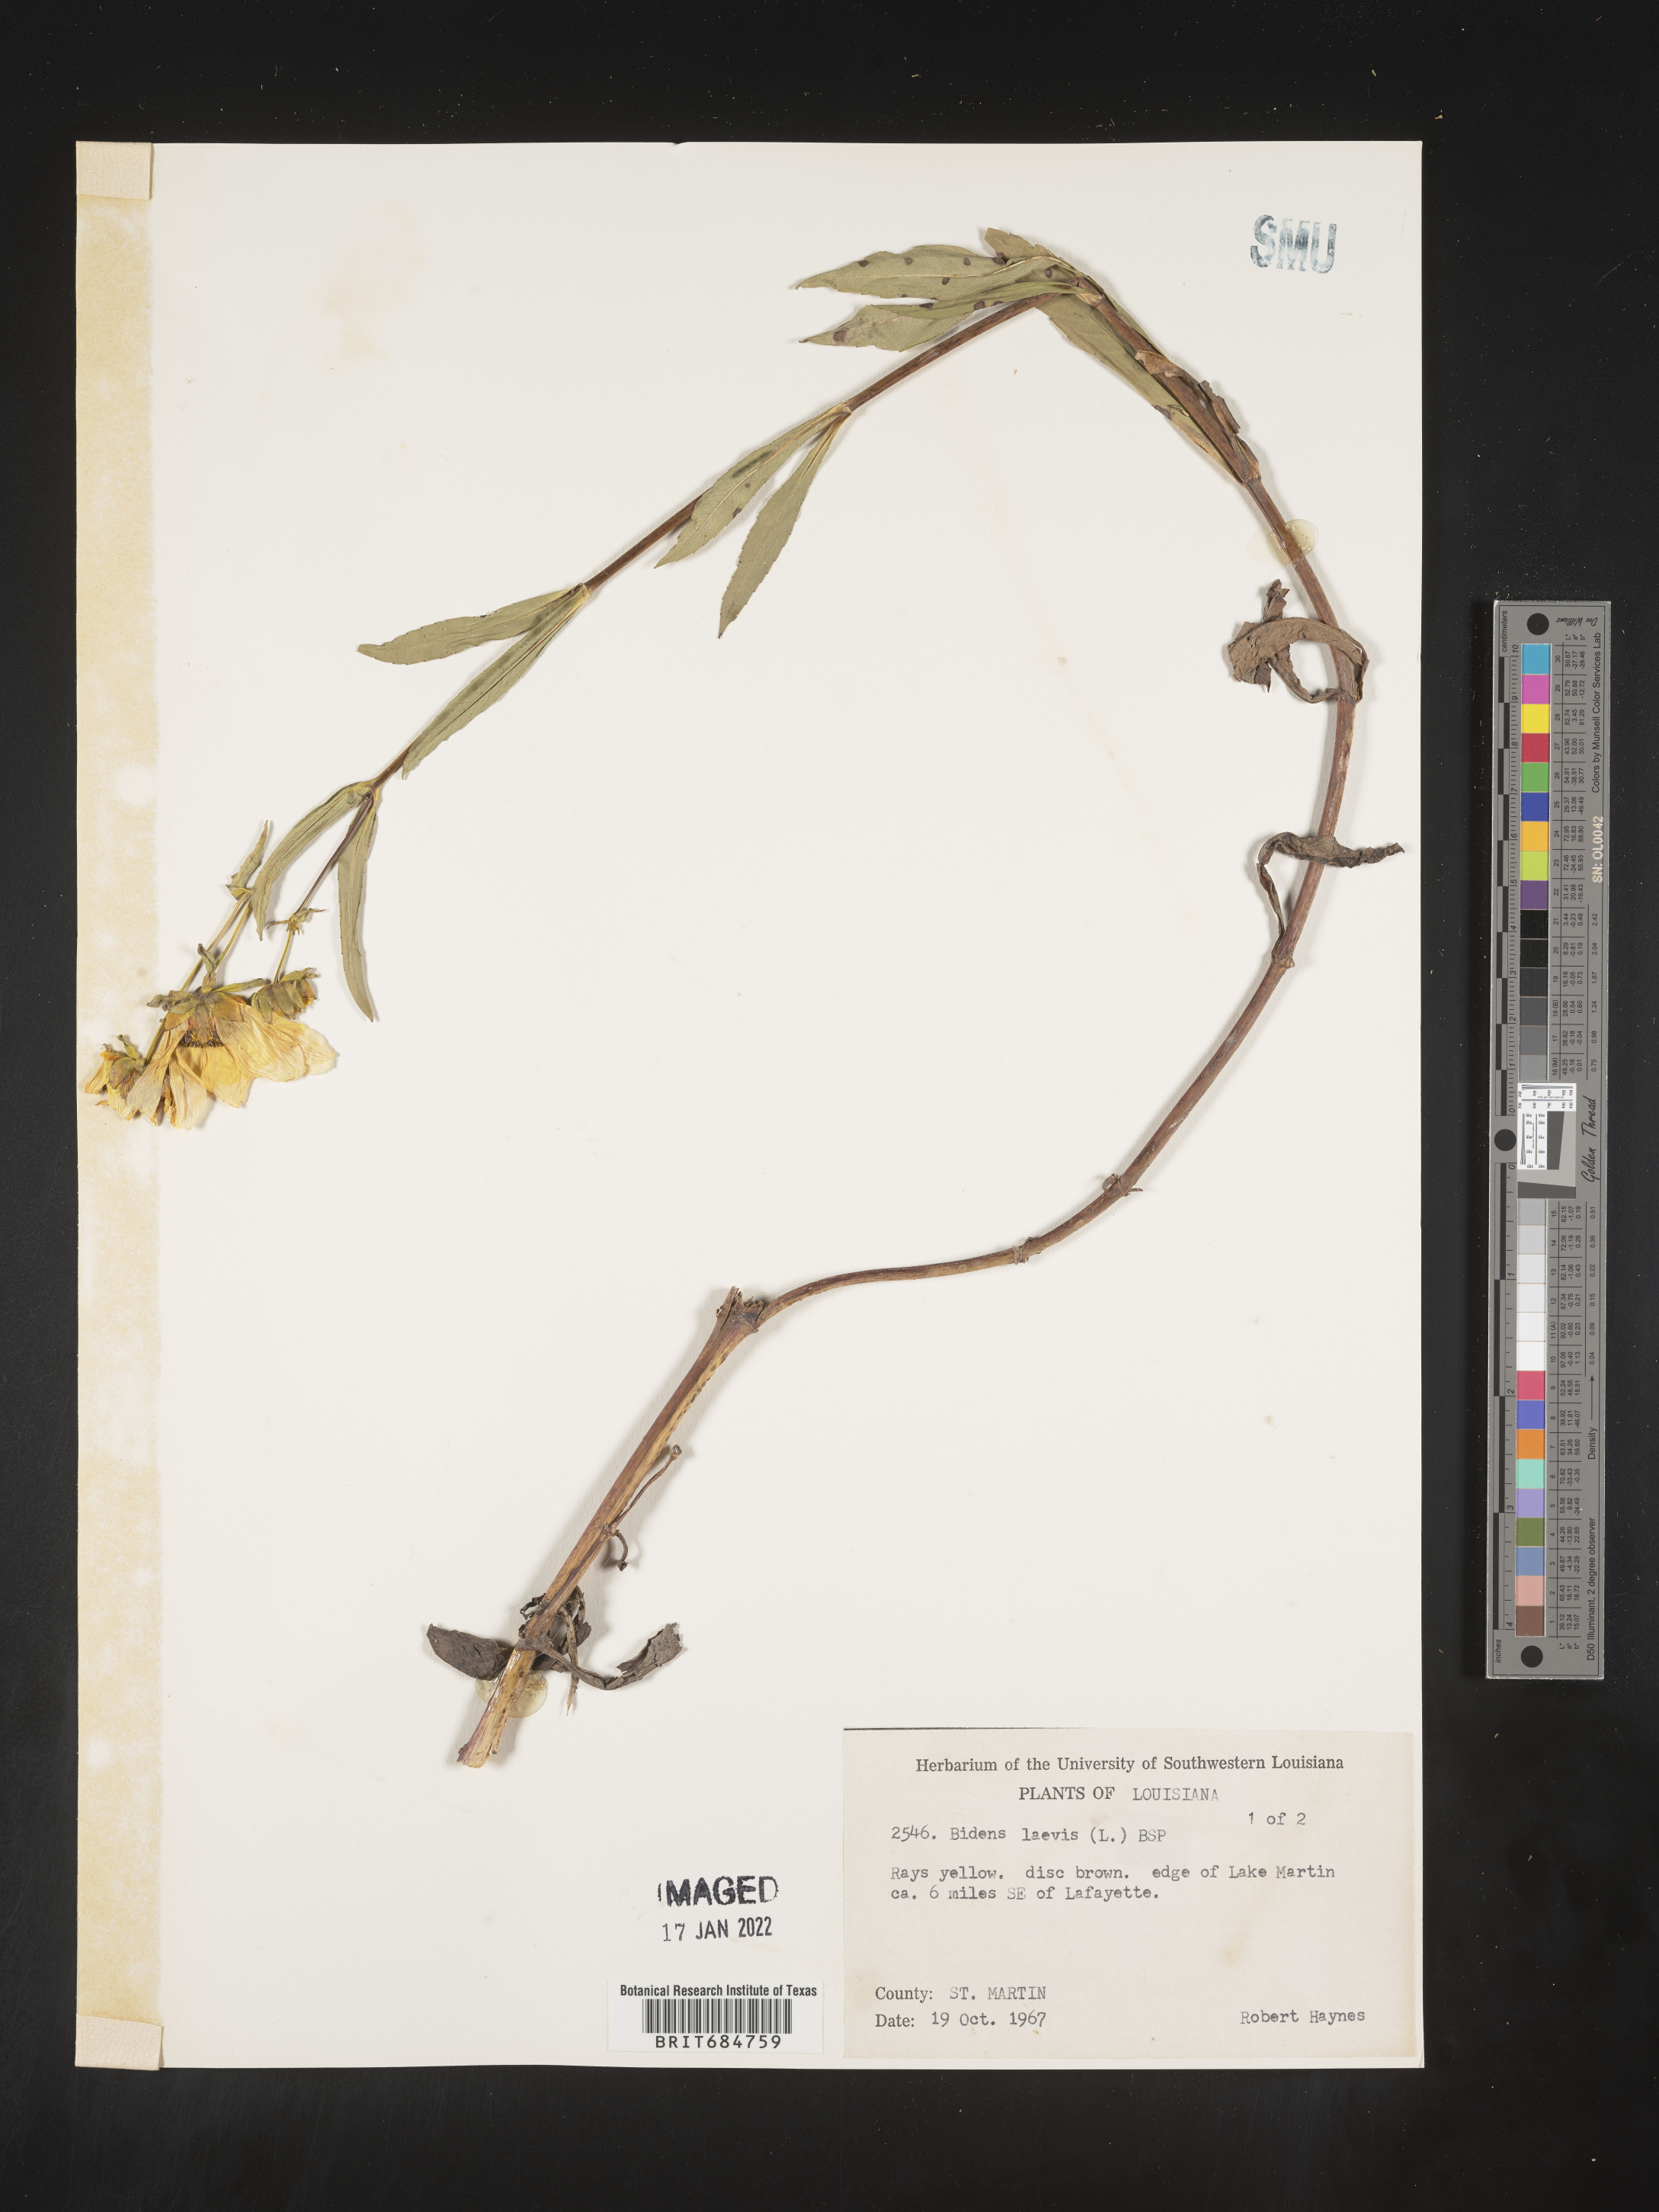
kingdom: Plantae
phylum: Tracheophyta
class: Magnoliopsida
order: Asterales
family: Asteraceae
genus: Bidens
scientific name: Bidens laevis
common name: Larger bur-marigold
